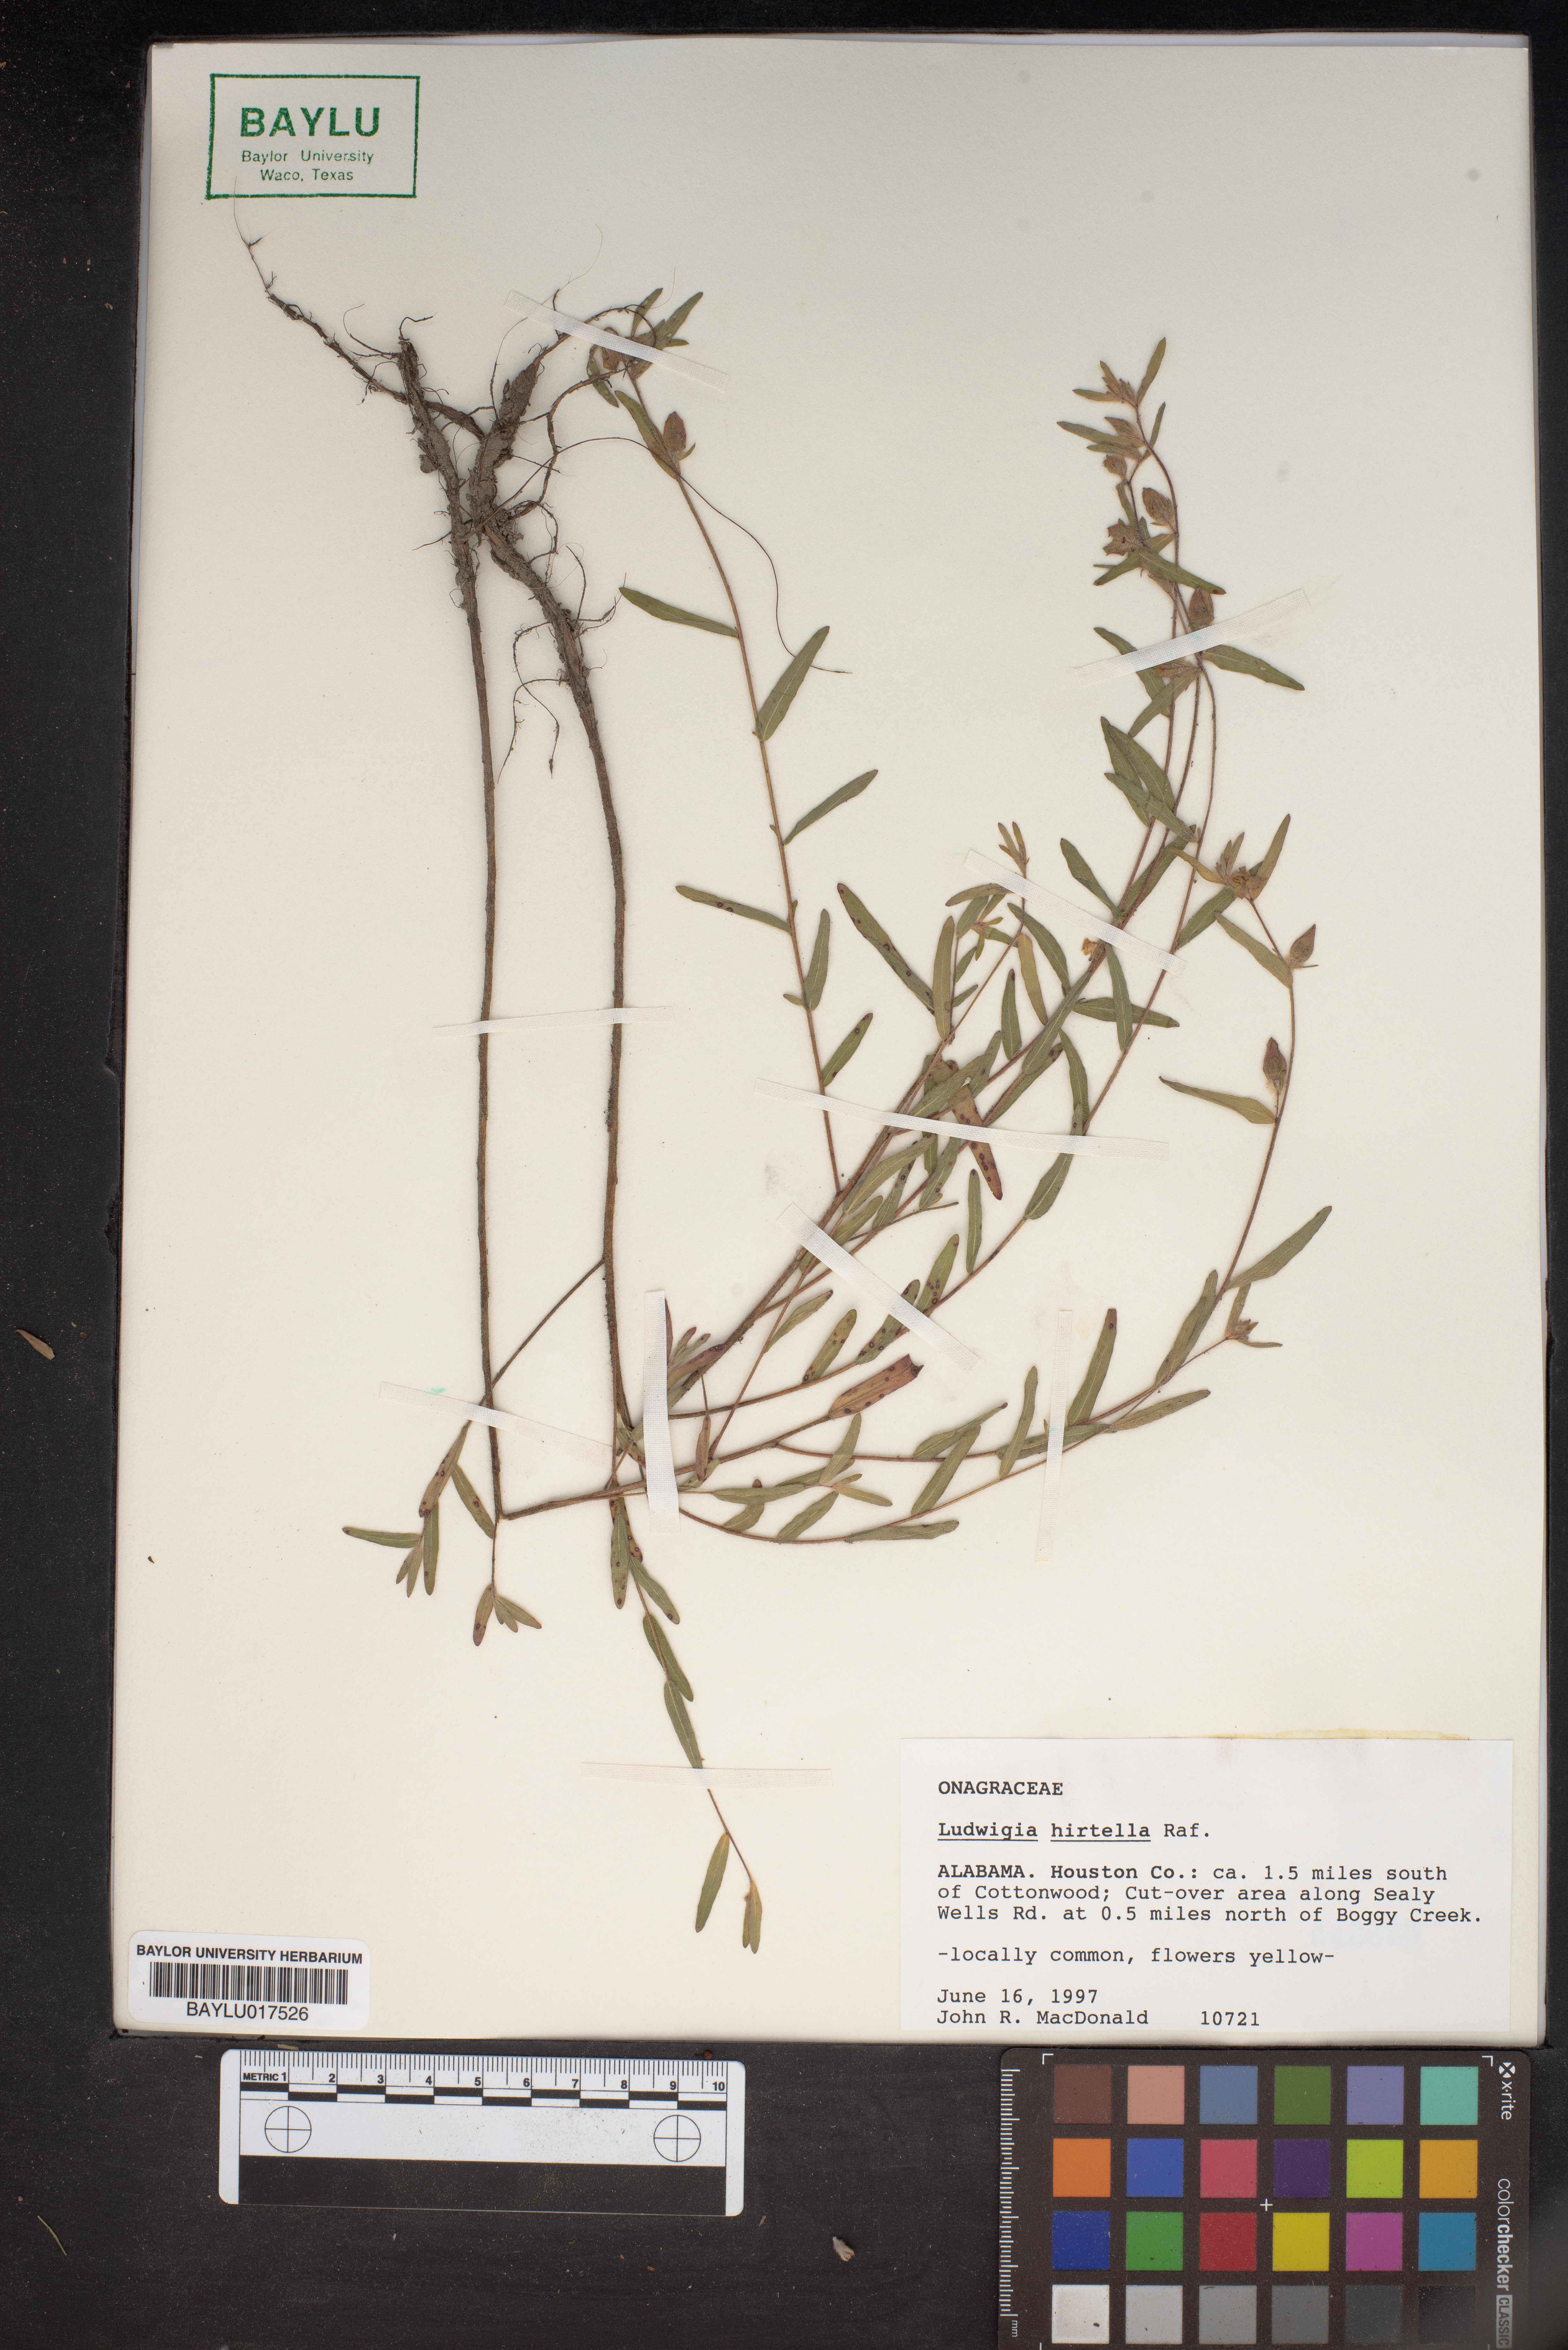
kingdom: Plantae
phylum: Tracheophyta
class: Magnoliopsida
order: Myrtales
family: Onagraceae
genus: Ludwigia
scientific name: Ludwigia hirtella
